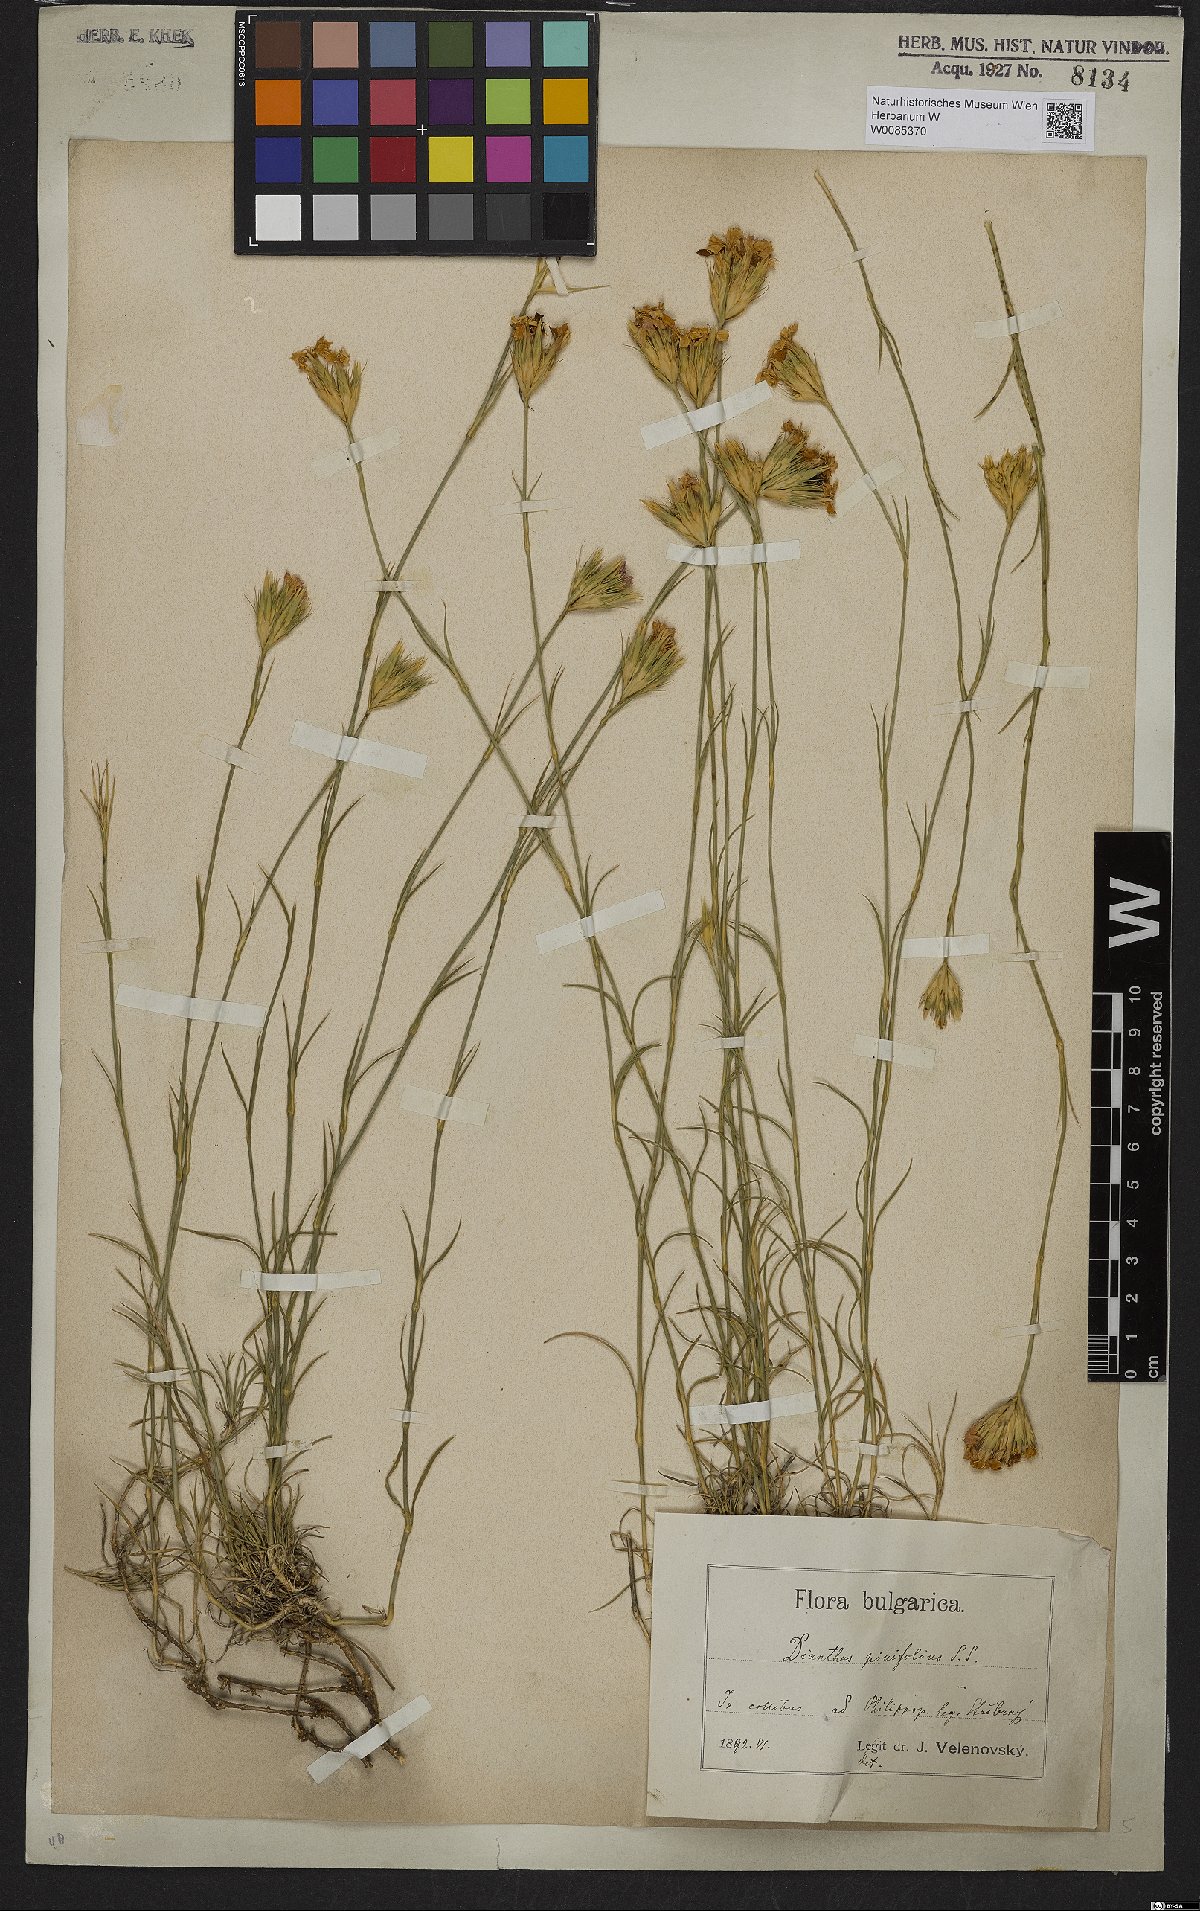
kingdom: Plantae
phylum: Tracheophyta
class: Magnoliopsida
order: Caryophyllales
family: Caryophyllaceae
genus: Dianthus
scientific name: Dianthus pinifolius
